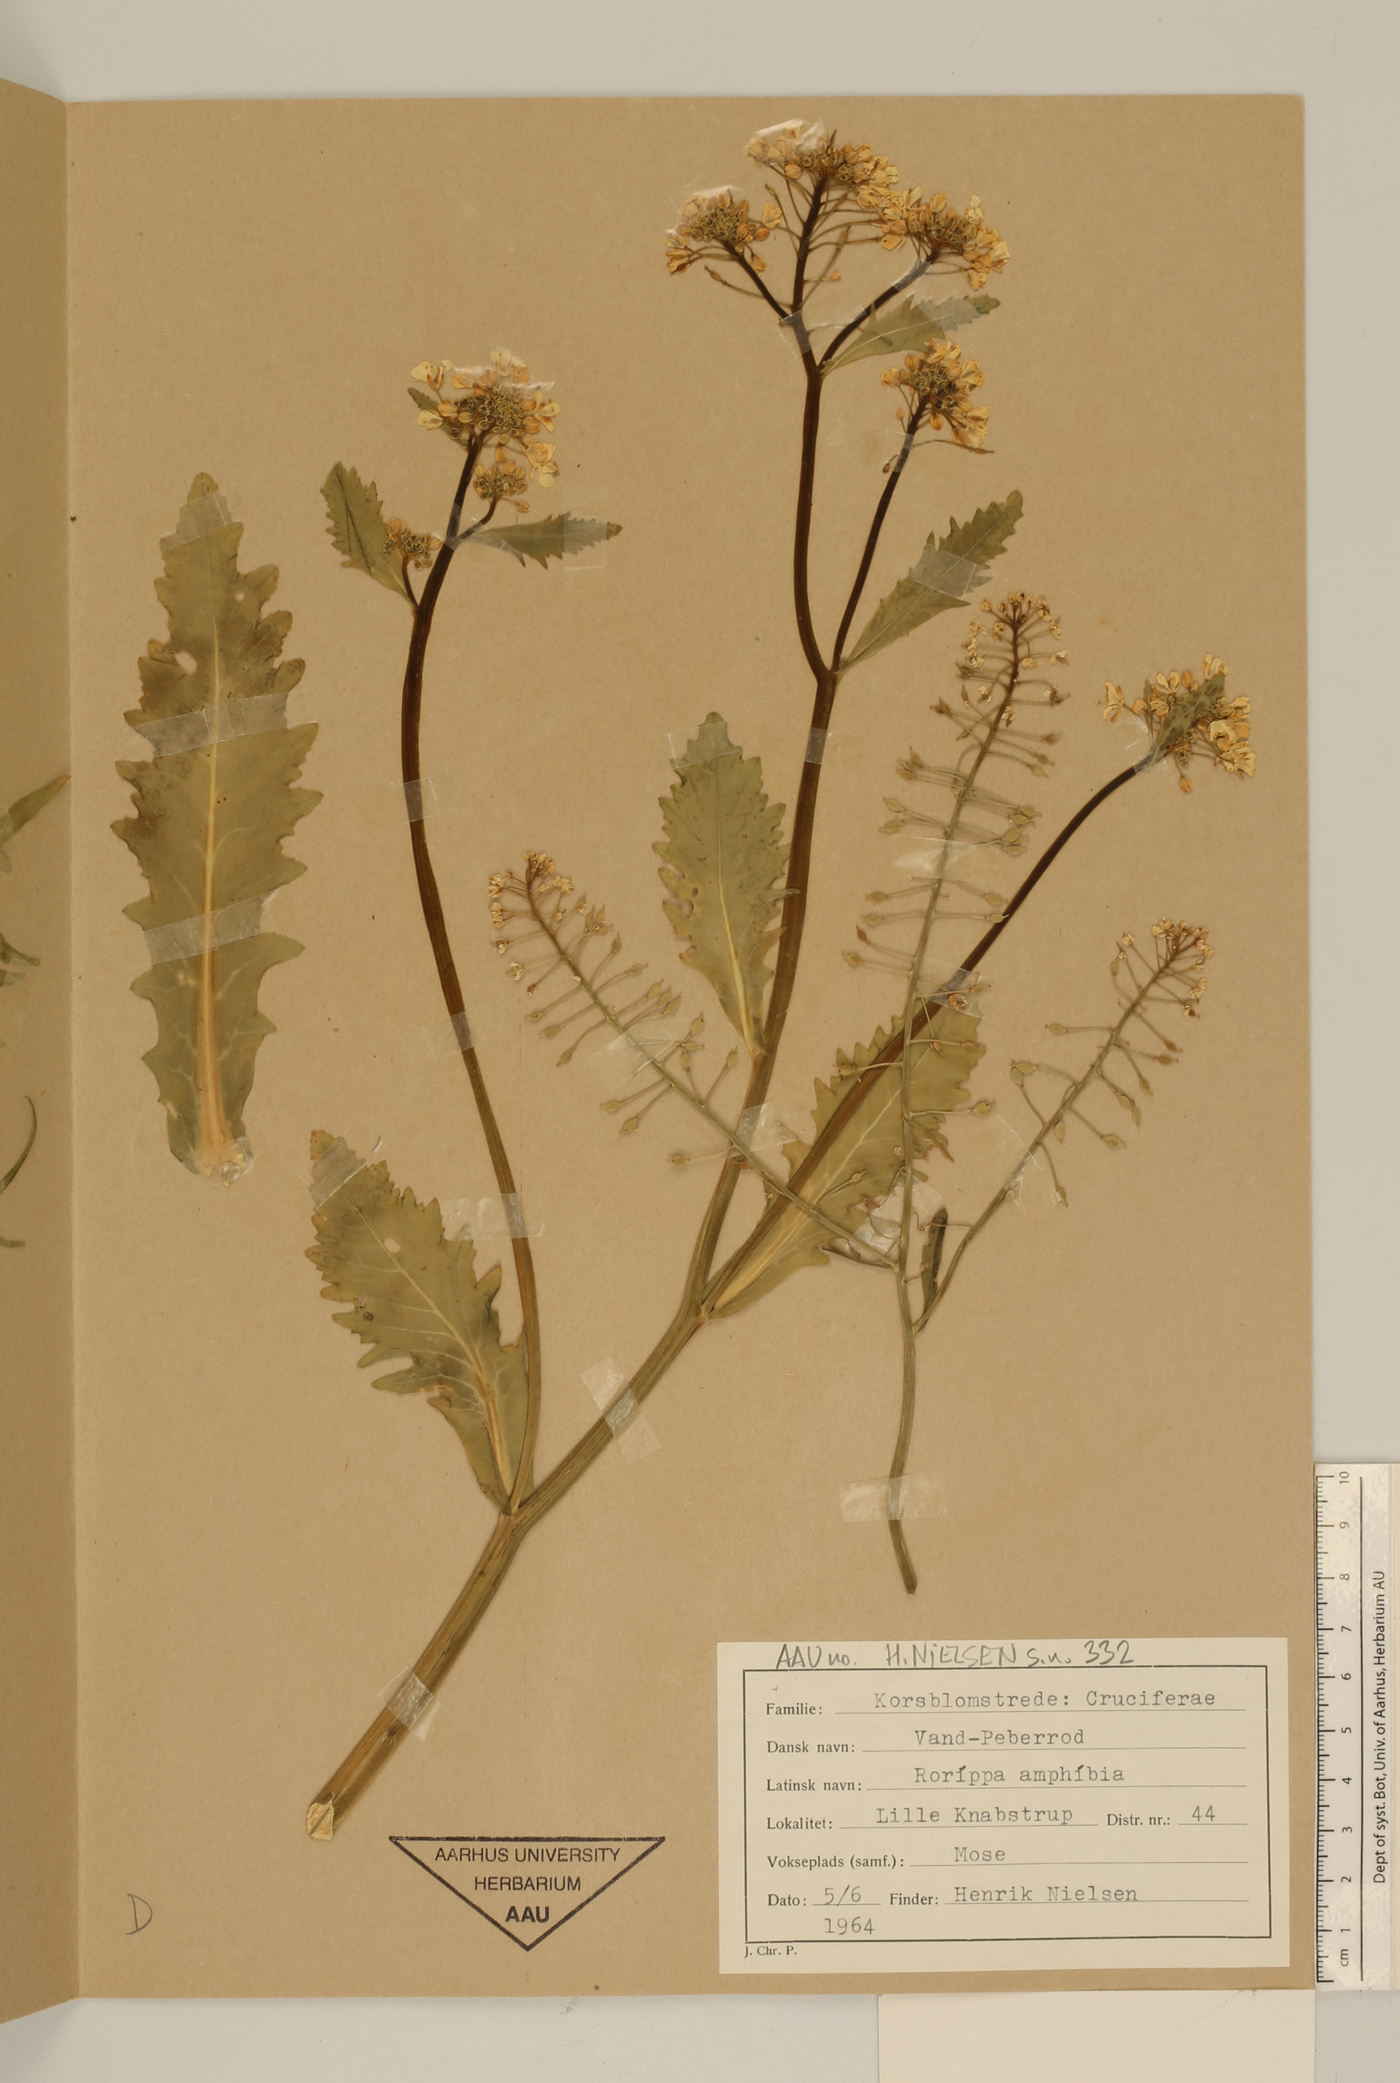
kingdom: Plantae
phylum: Tracheophyta
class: Magnoliopsida
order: Brassicales
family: Brassicaceae
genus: Rorippa
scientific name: Rorippa amphibia
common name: Great yellow-cress
